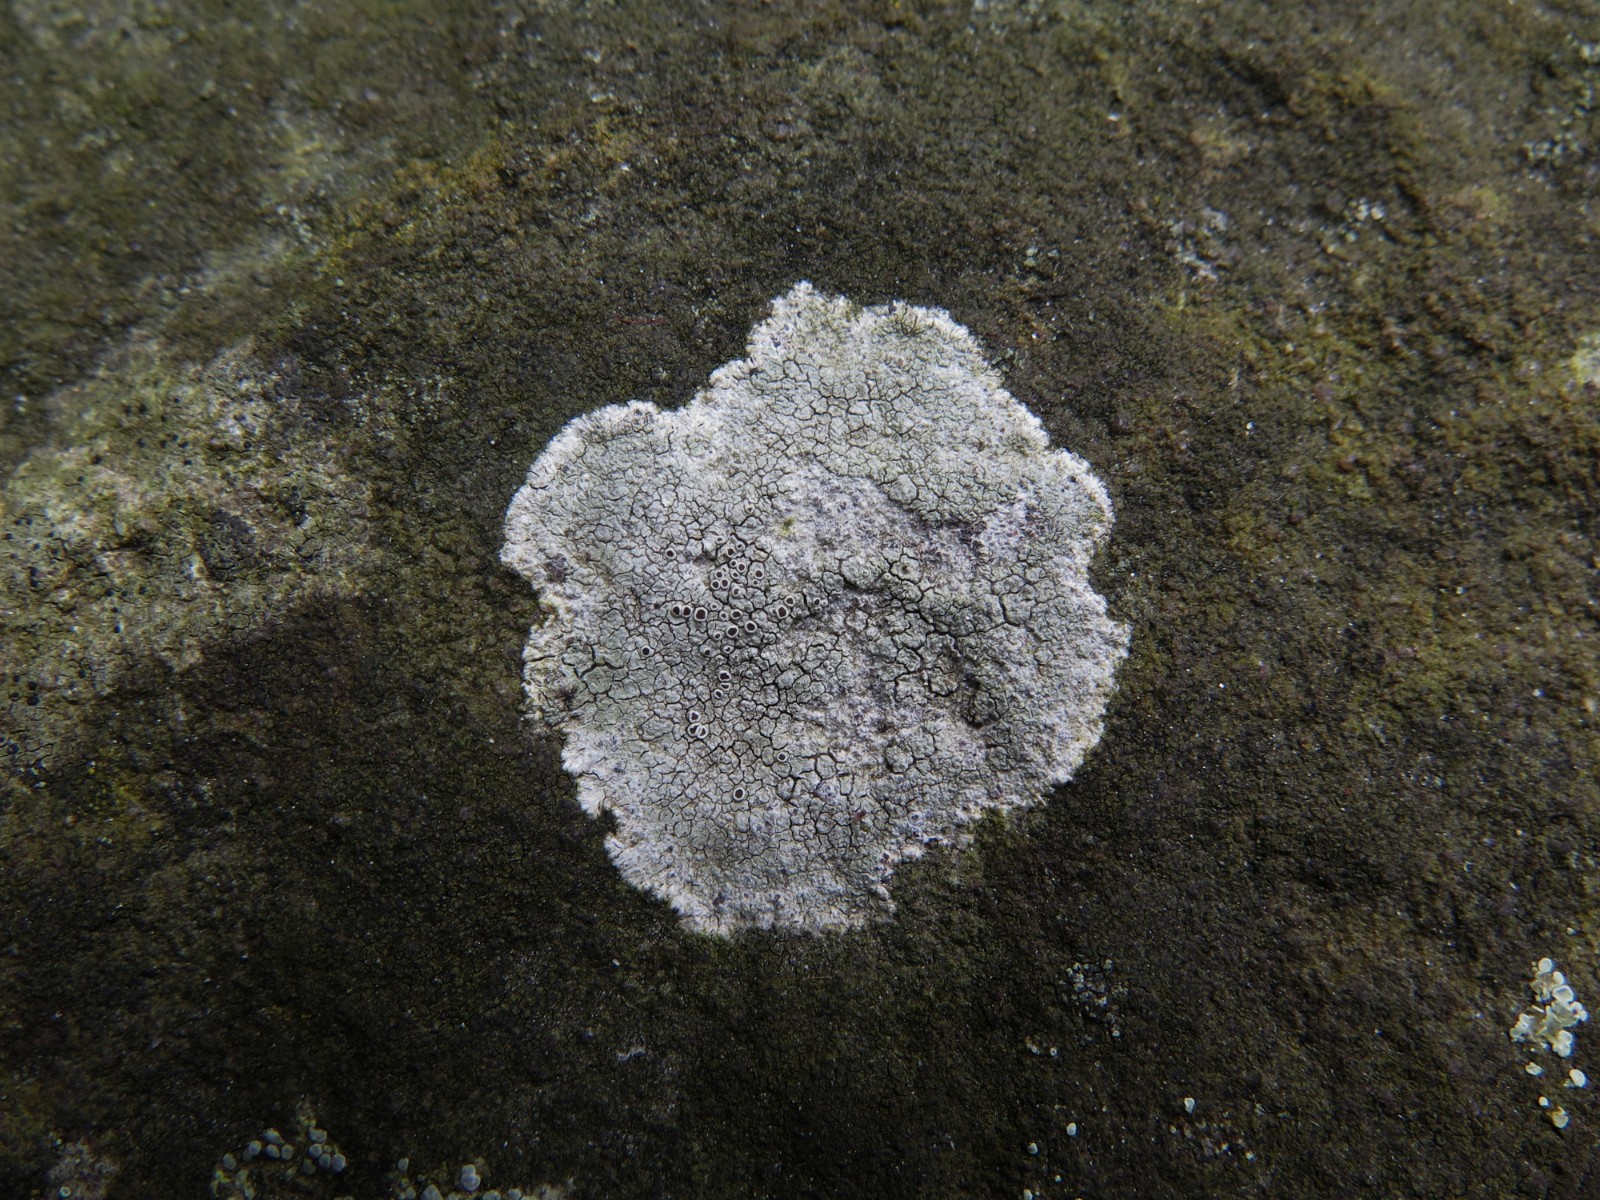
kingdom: Fungi
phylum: Ascomycota
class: Lecanoromycetes
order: Lecanorales
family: Lecanoraceae
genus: Glaucomaria
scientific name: Glaucomaria rupicola
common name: stengærde-kantskivelav
